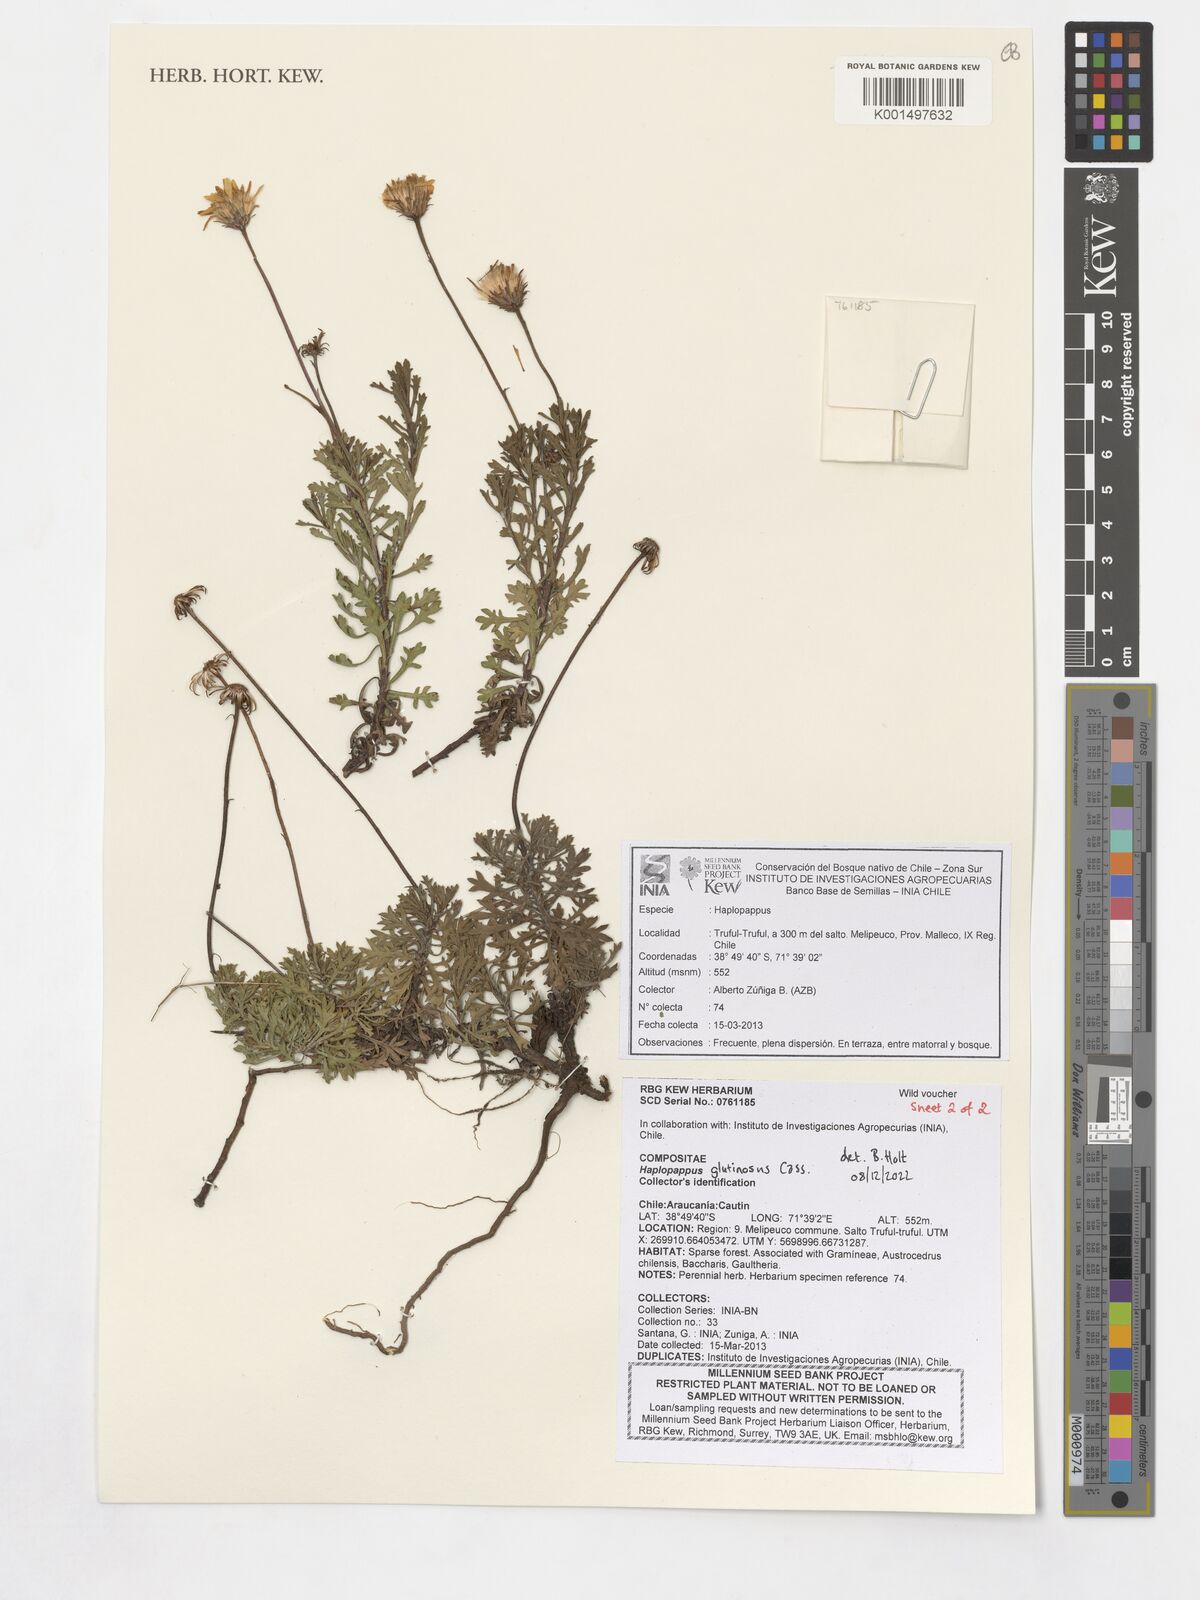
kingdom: Plantae
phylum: Tracheophyta
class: Magnoliopsida
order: Asterales
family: Asteraceae
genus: Haplopappus
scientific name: Haplopappus glutinosus
